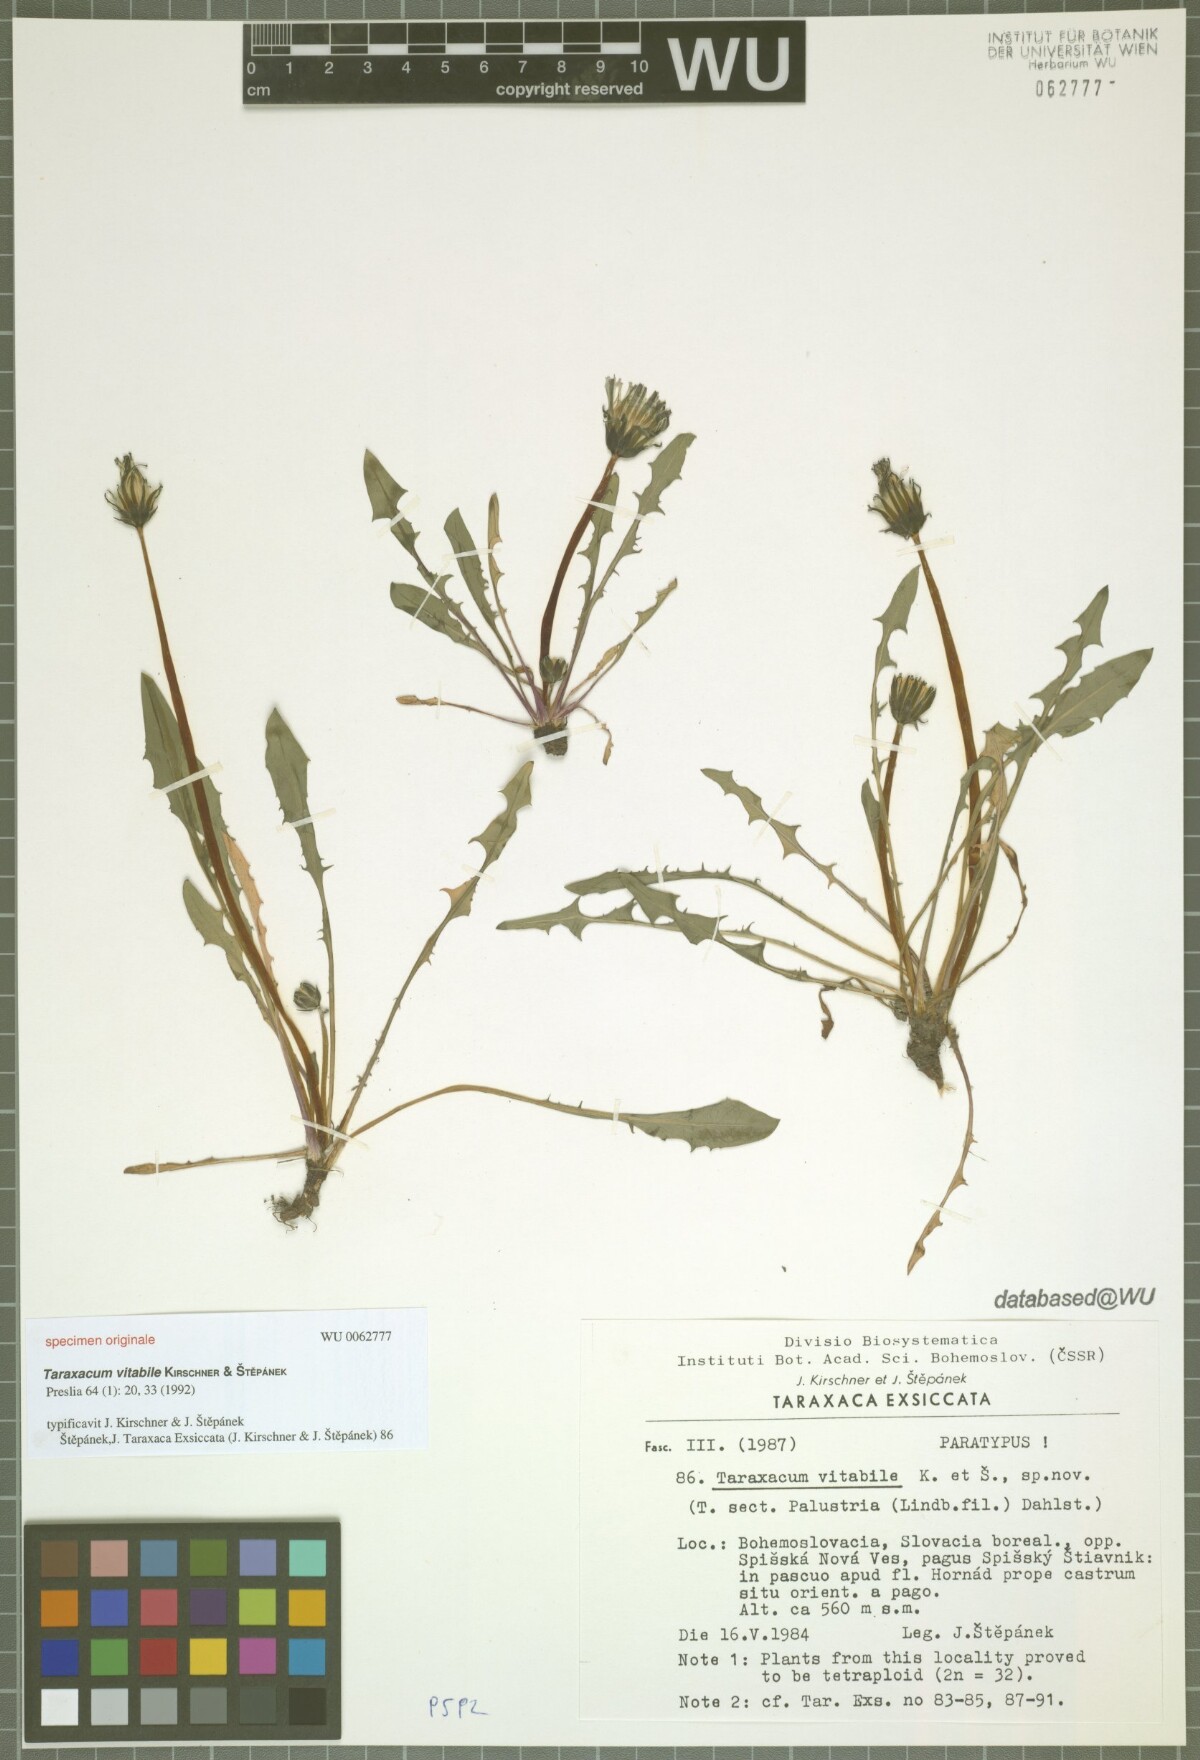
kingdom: Plantae
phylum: Tracheophyta
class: Magnoliopsida
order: Asterales
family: Asteraceae
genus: Taraxacum
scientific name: Taraxacum vindobonense
